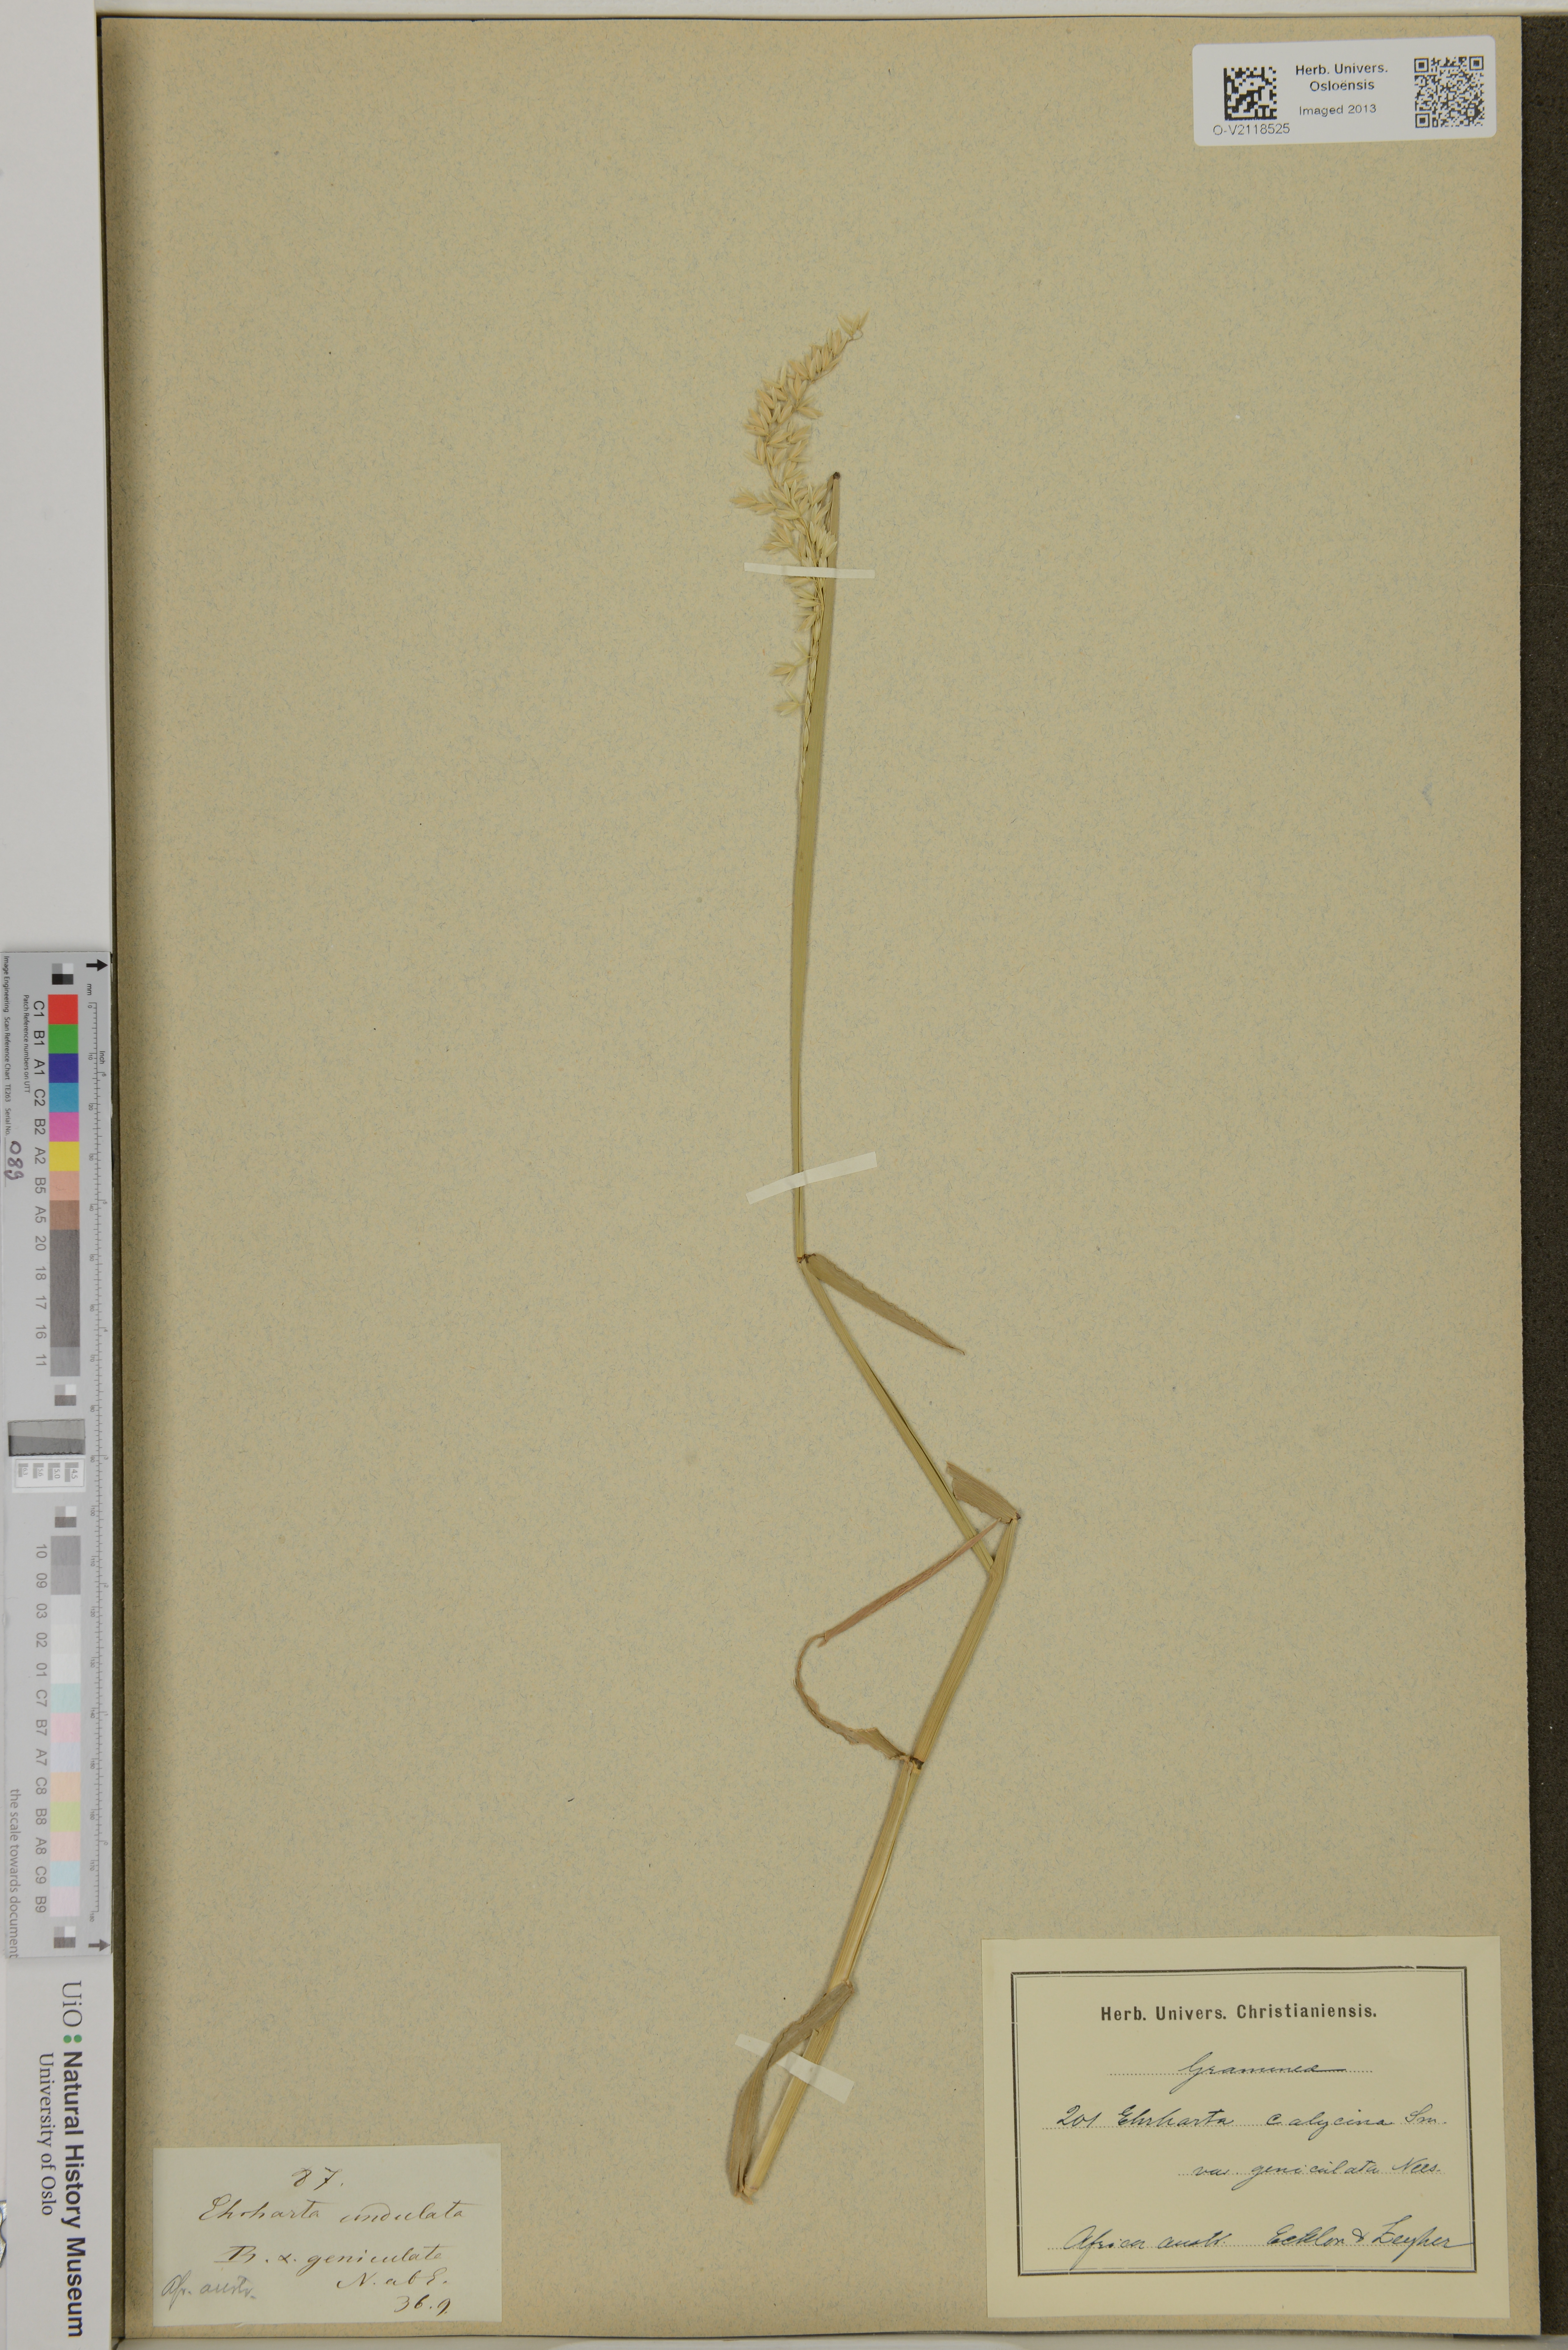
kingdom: Plantae
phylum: Tracheophyta
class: Liliopsida
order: Poales
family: Poaceae
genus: Ehrharta
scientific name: Ehrharta calycina
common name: Perennial veldtgrass
